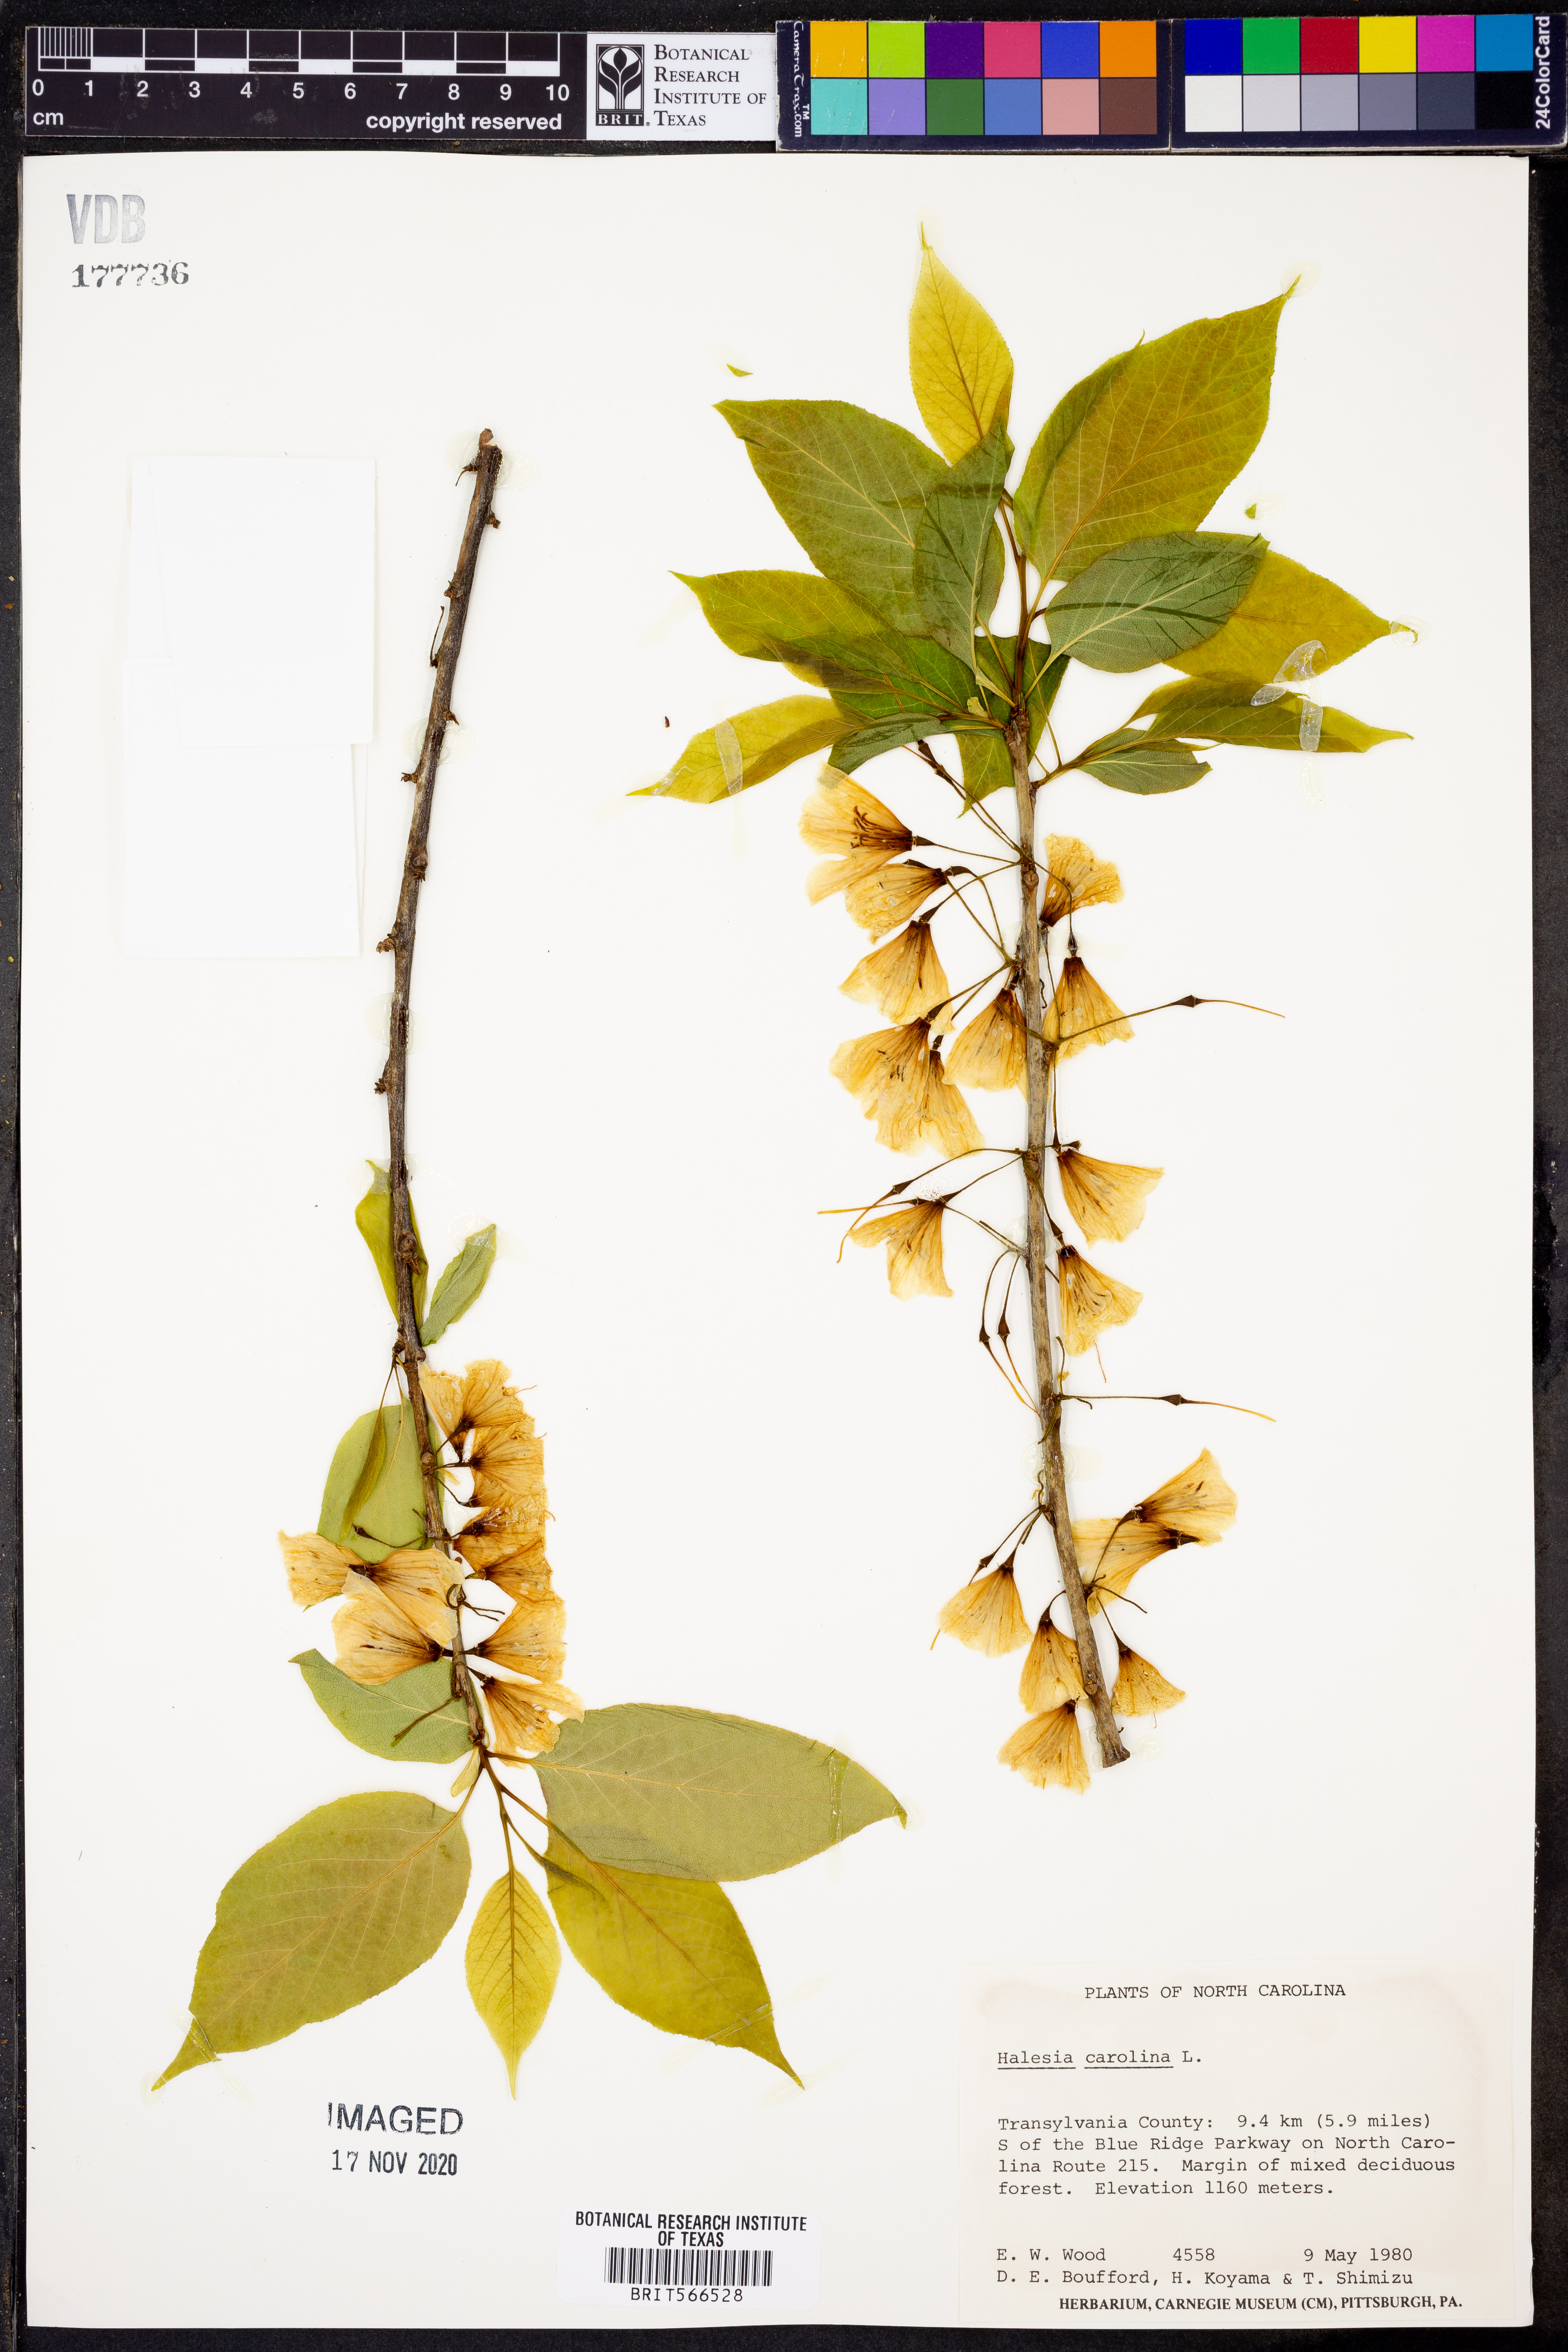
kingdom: Plantae
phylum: Tracheophyta
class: Magnoliopsida
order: Ericales
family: Styracaceae
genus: Halesia
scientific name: Halesia carolina
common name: Carolina silverbell
